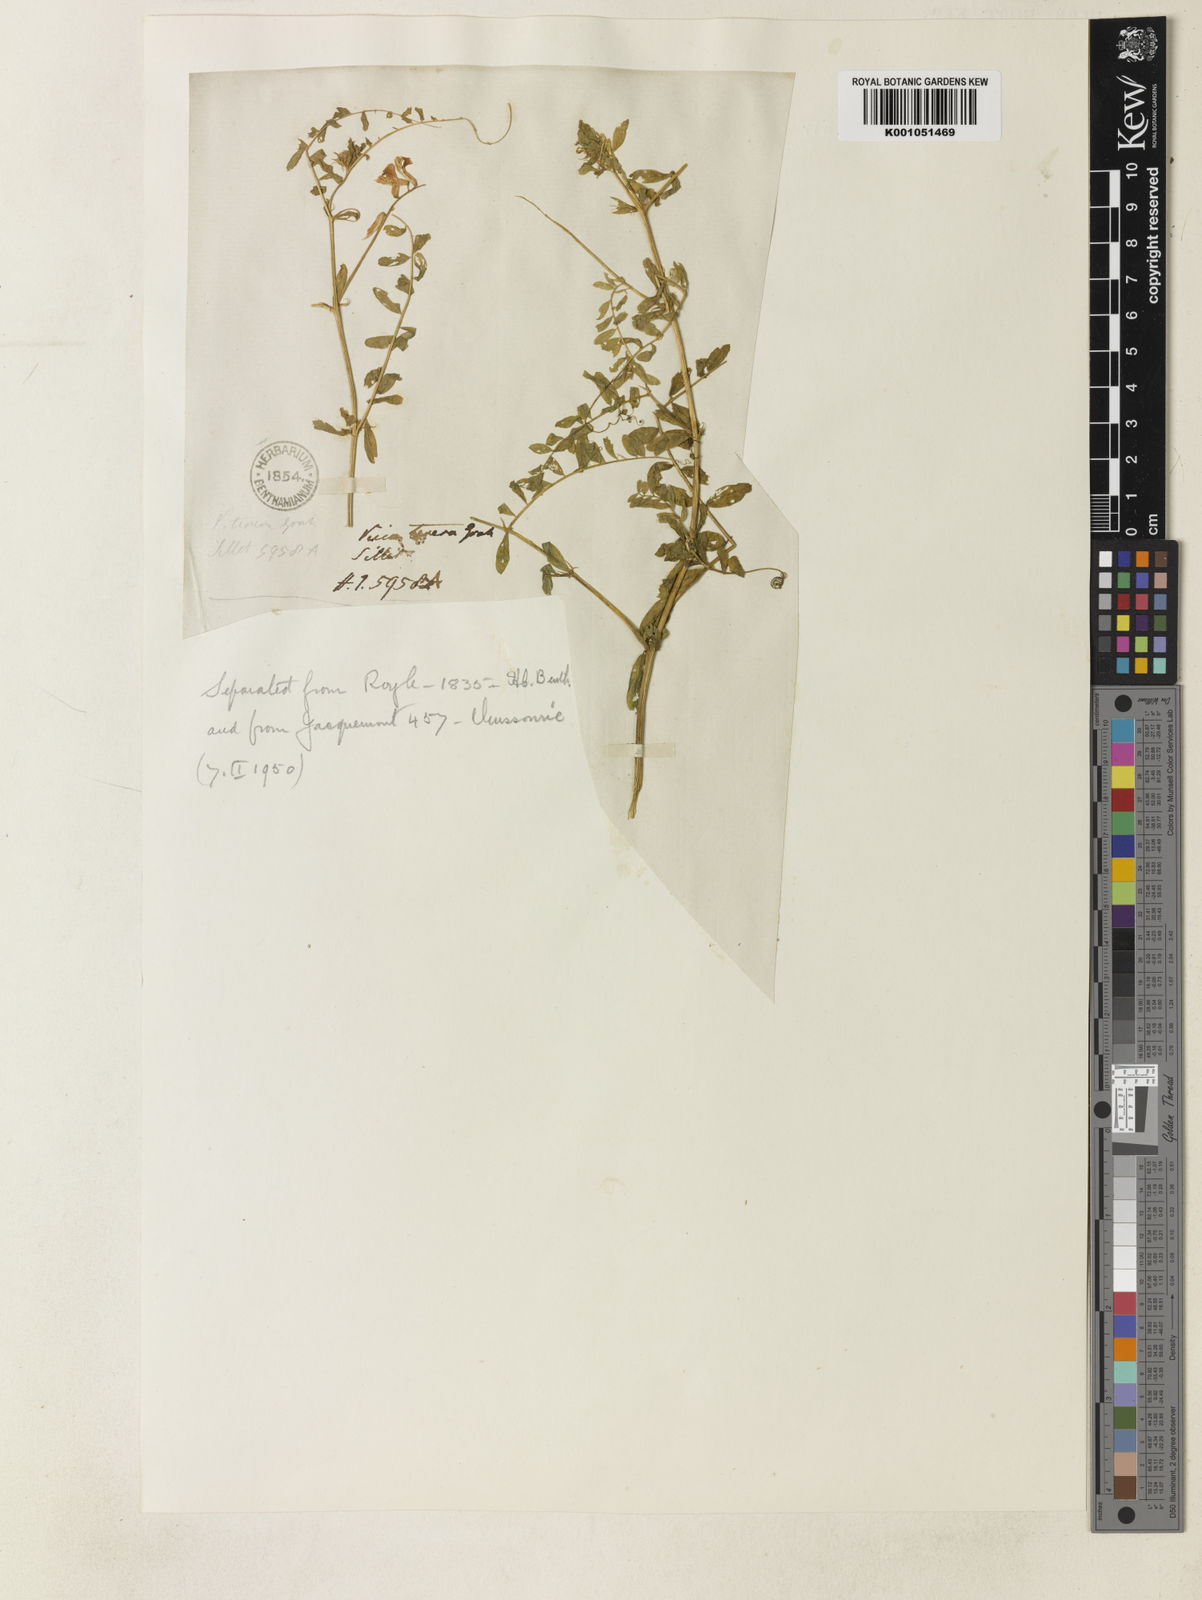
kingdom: Plantae
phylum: Tracheophyta
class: Magnoliopsida
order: Fabales
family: Fabaceae
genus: Vicia
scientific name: Vicia
